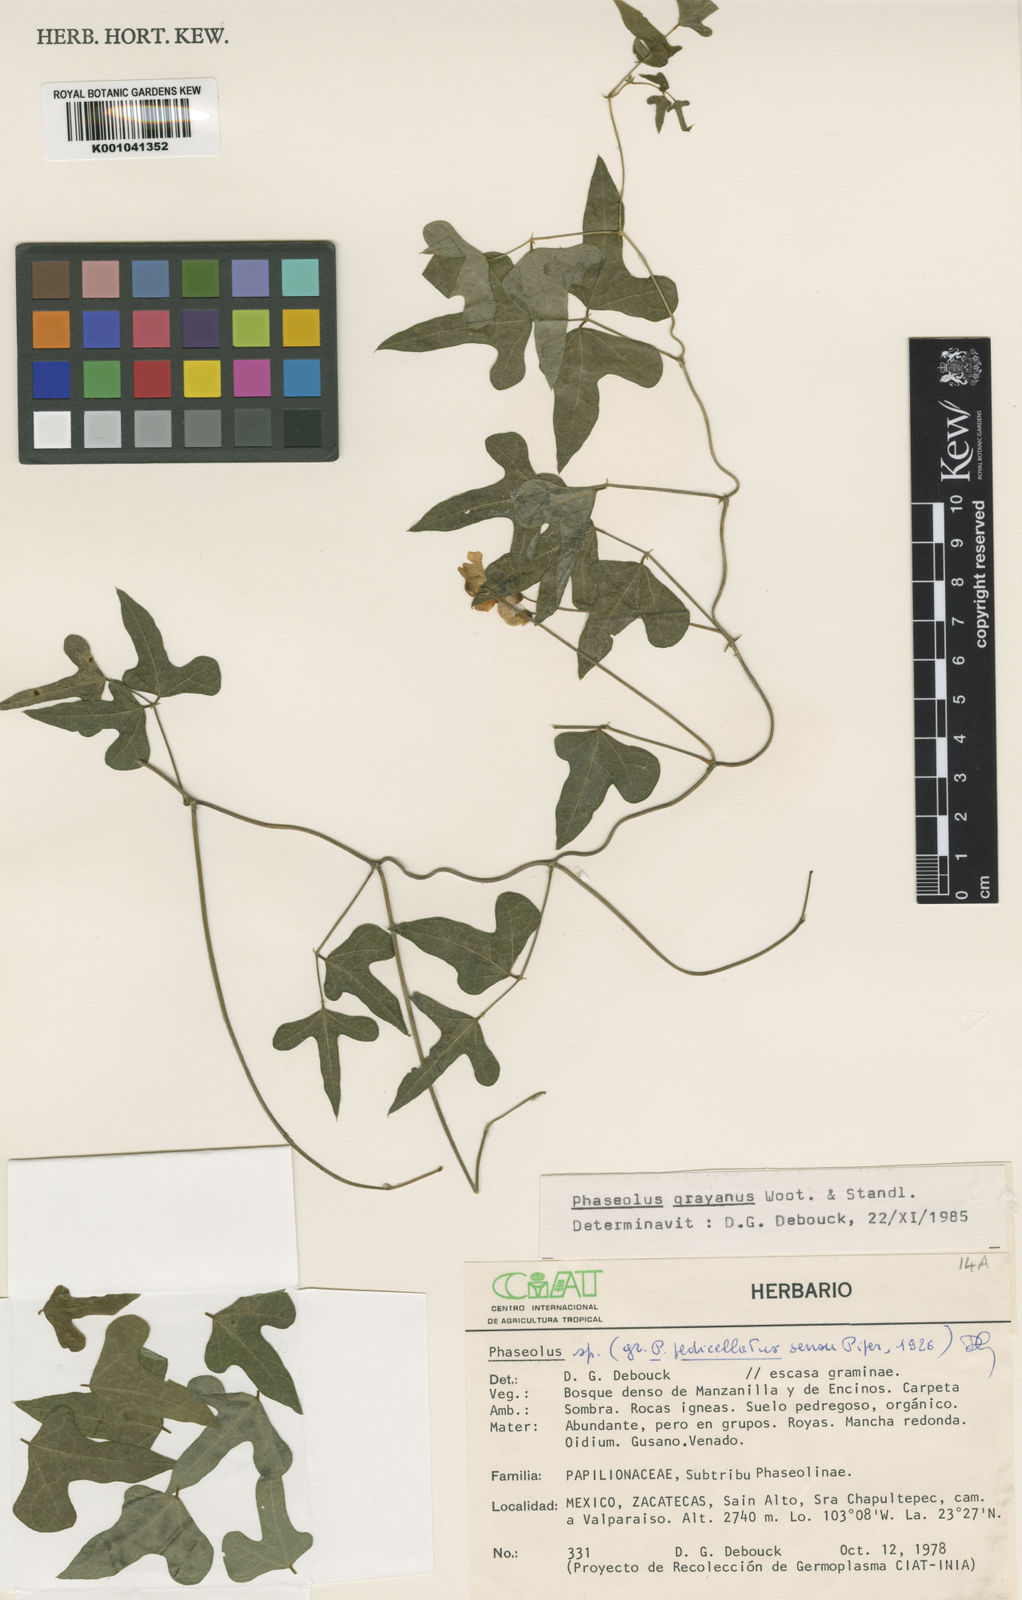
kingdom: Plantae
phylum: Tracheophyta
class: Magnoliopsida
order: Fabales
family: Fabaceae
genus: Phaseolus
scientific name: Phaseolus pedicellatus
